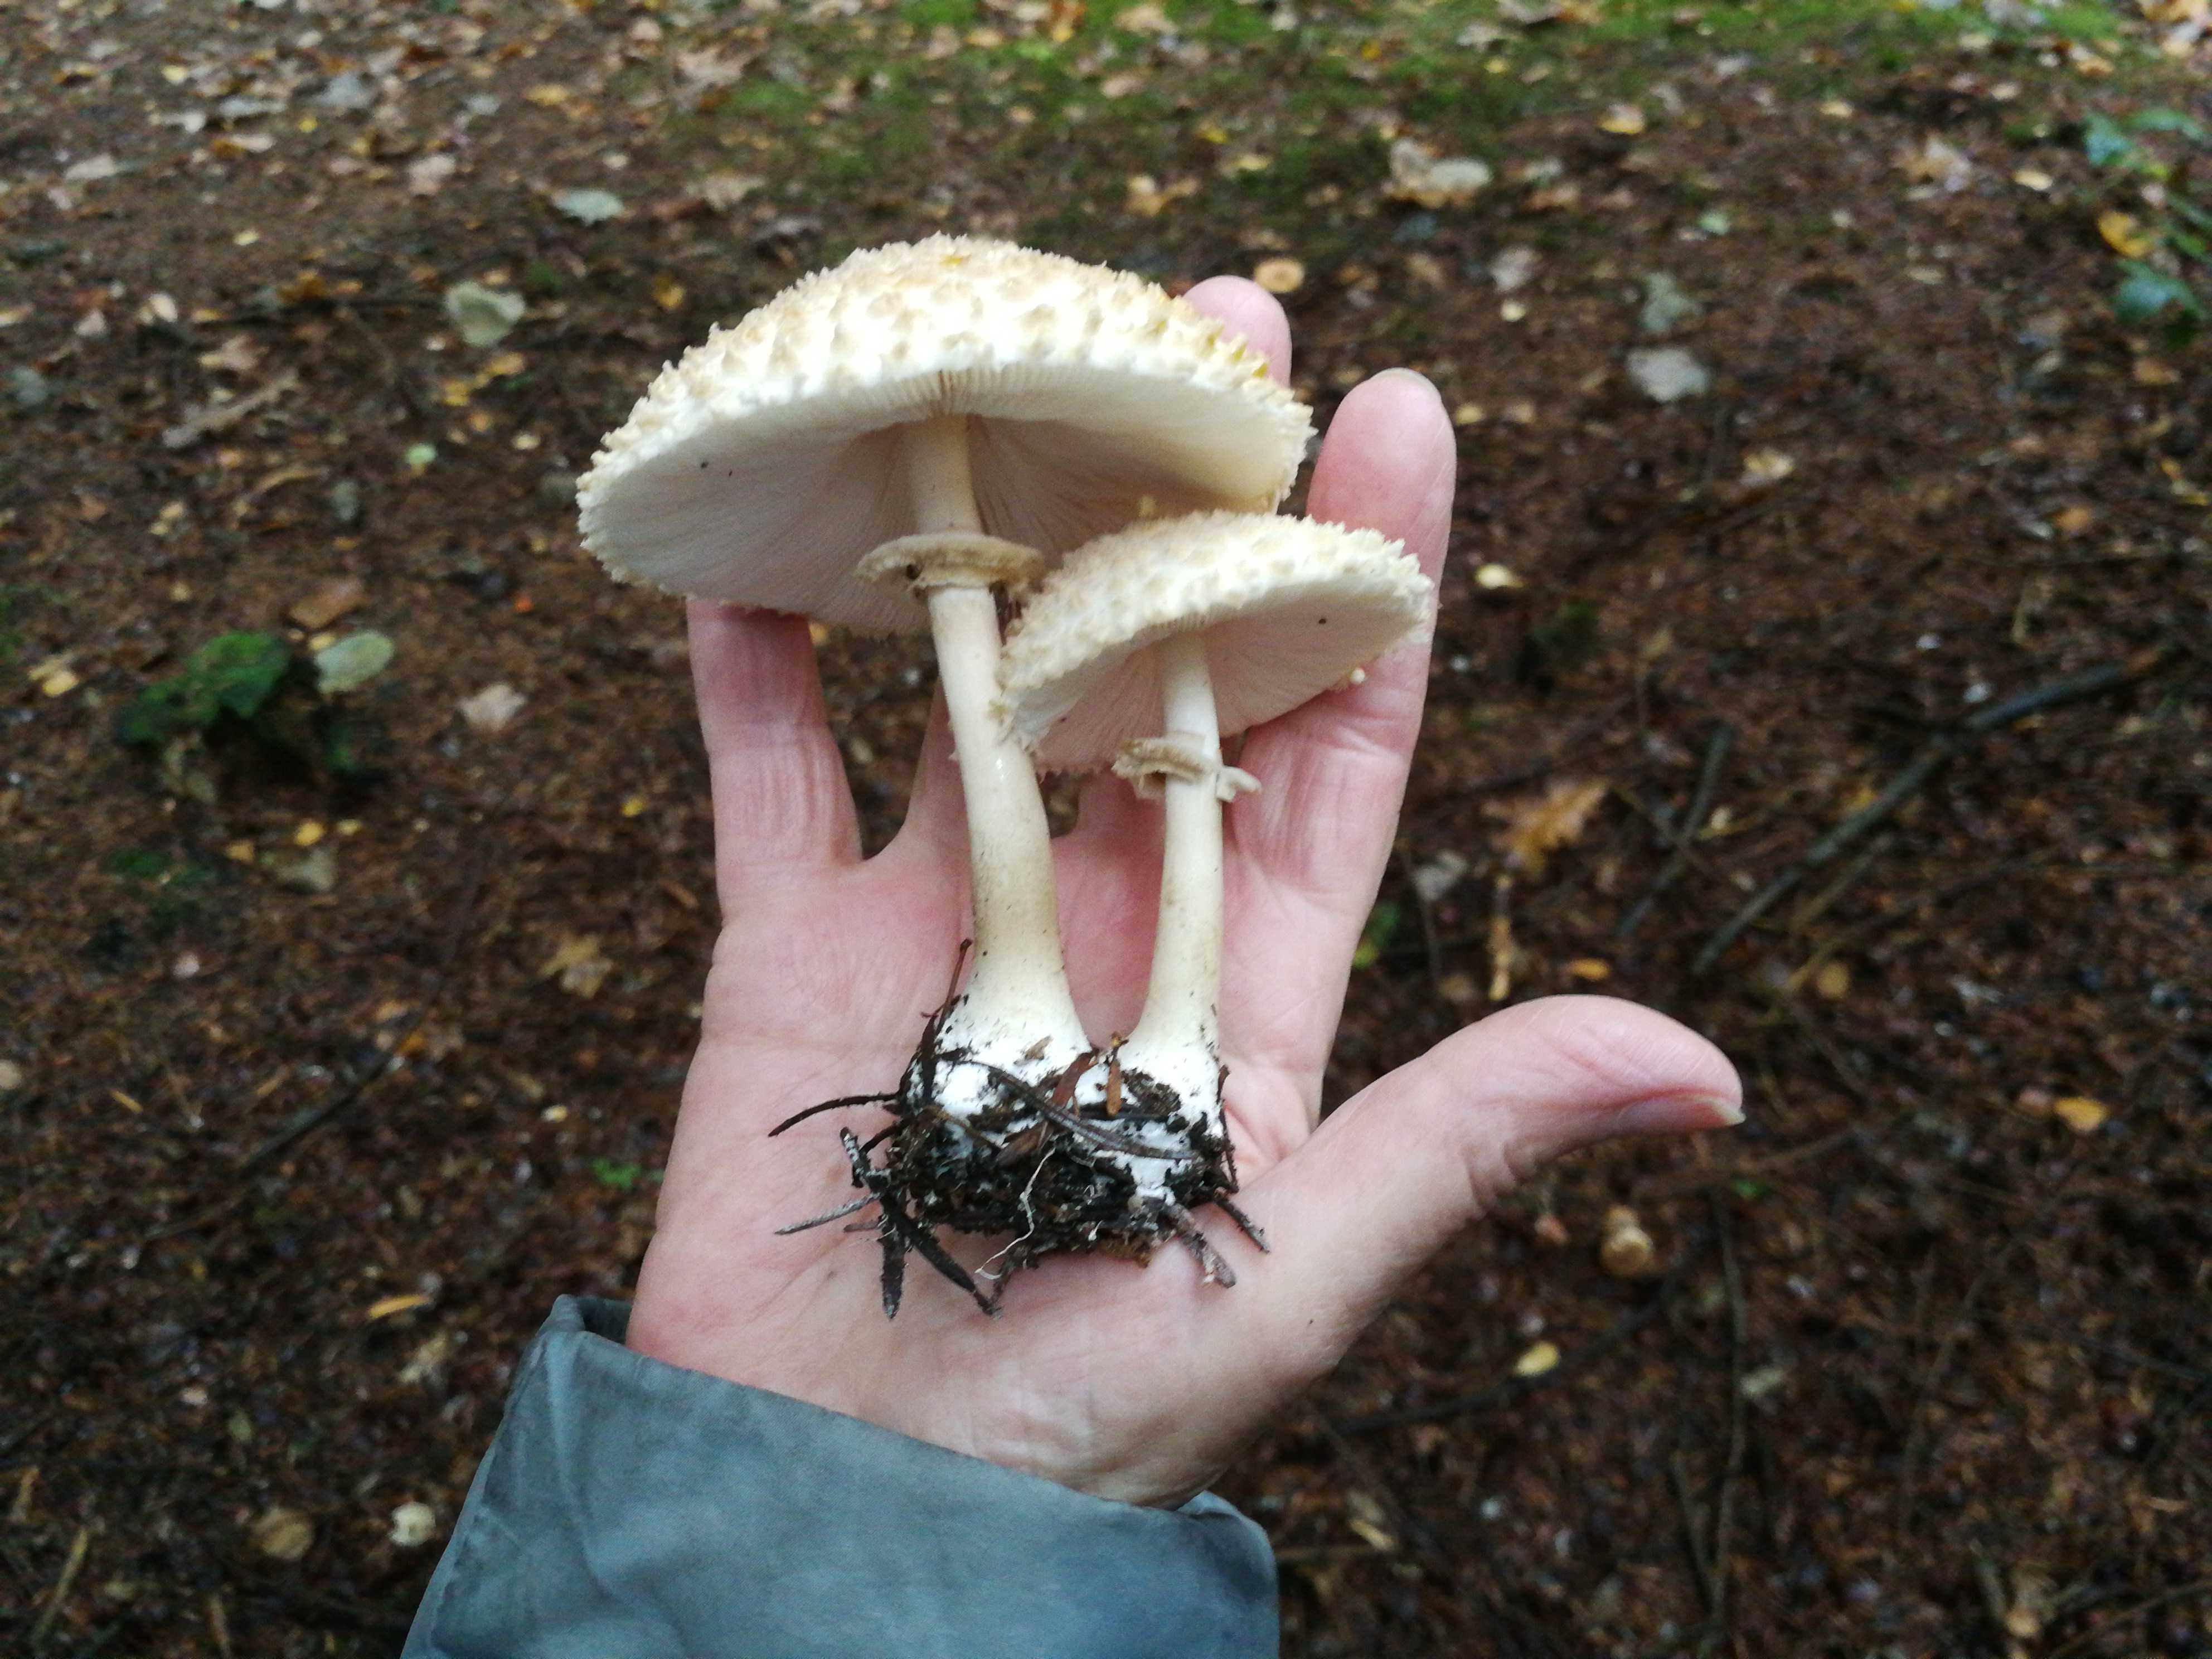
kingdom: Fungi
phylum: Basidiomycota
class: Agaricomycetes
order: Agaricales
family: Agaricaceae
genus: Leucoagaricus
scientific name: Leucoagaricus nympharum
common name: gran-silkehat
